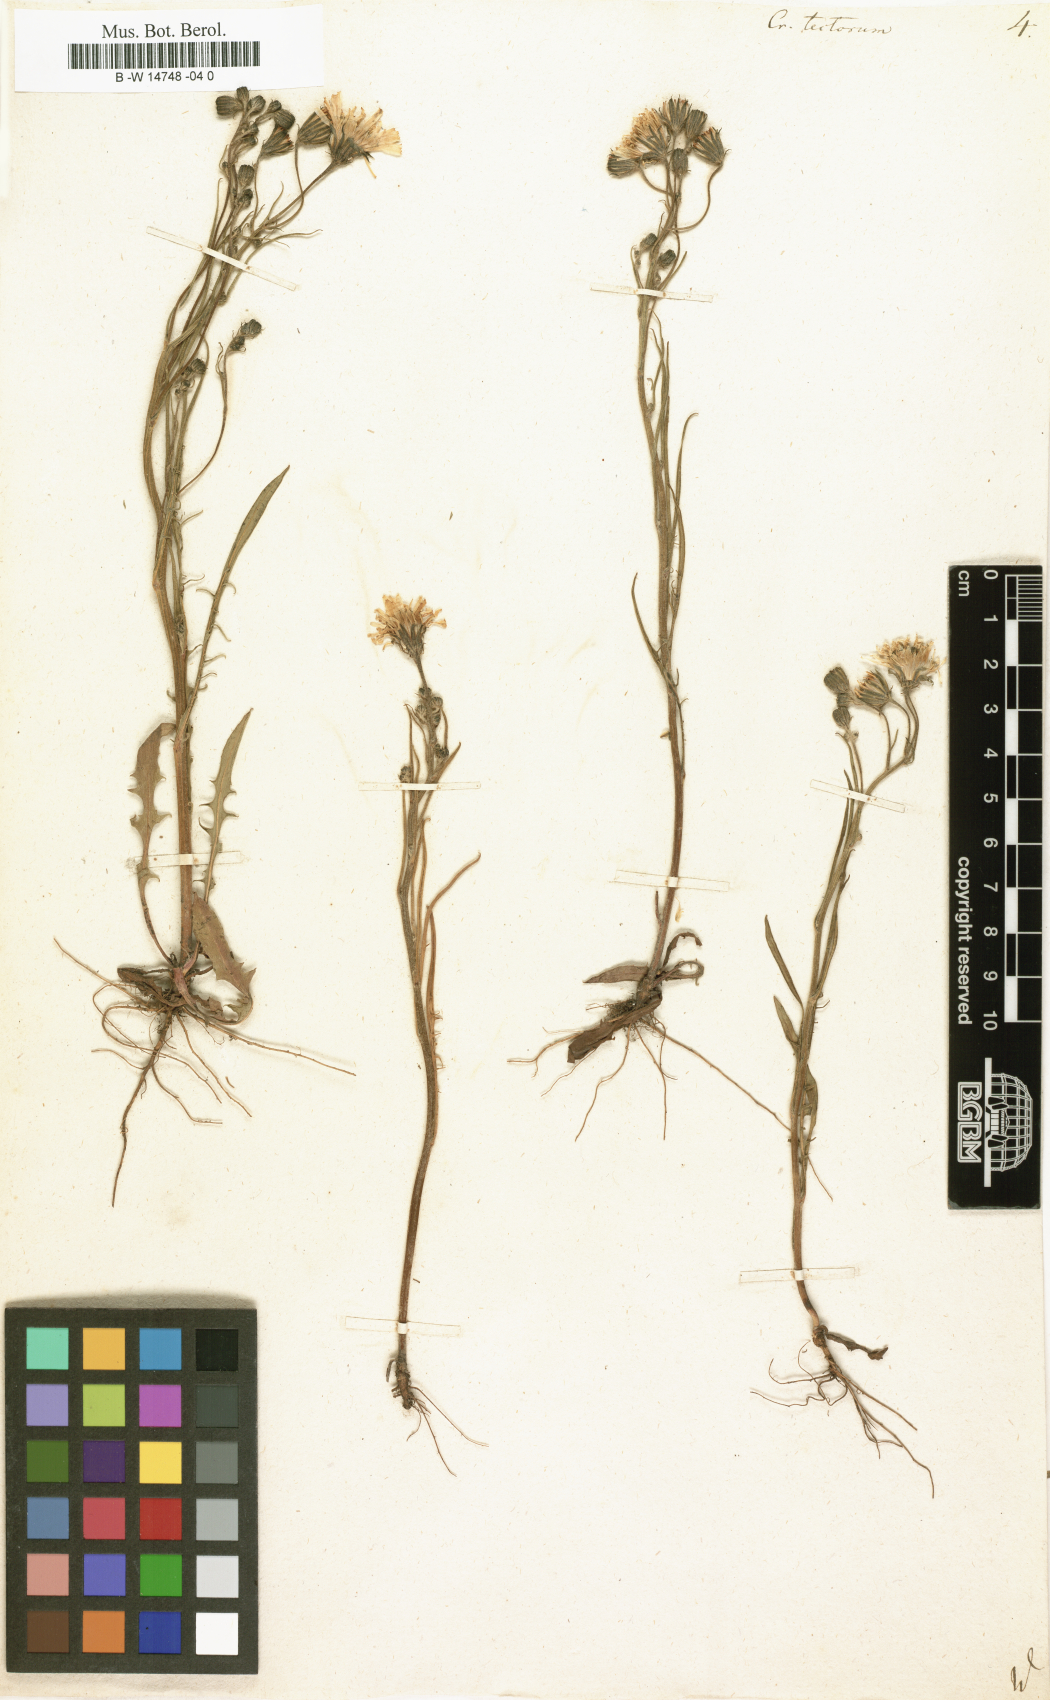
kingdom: Plantae
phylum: Tracheophyta
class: Magnoliopsida
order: Asterales
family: Asteraceae
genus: Crepis
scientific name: Crepis tectorum
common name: Narrow-leaved hawk's-beard
